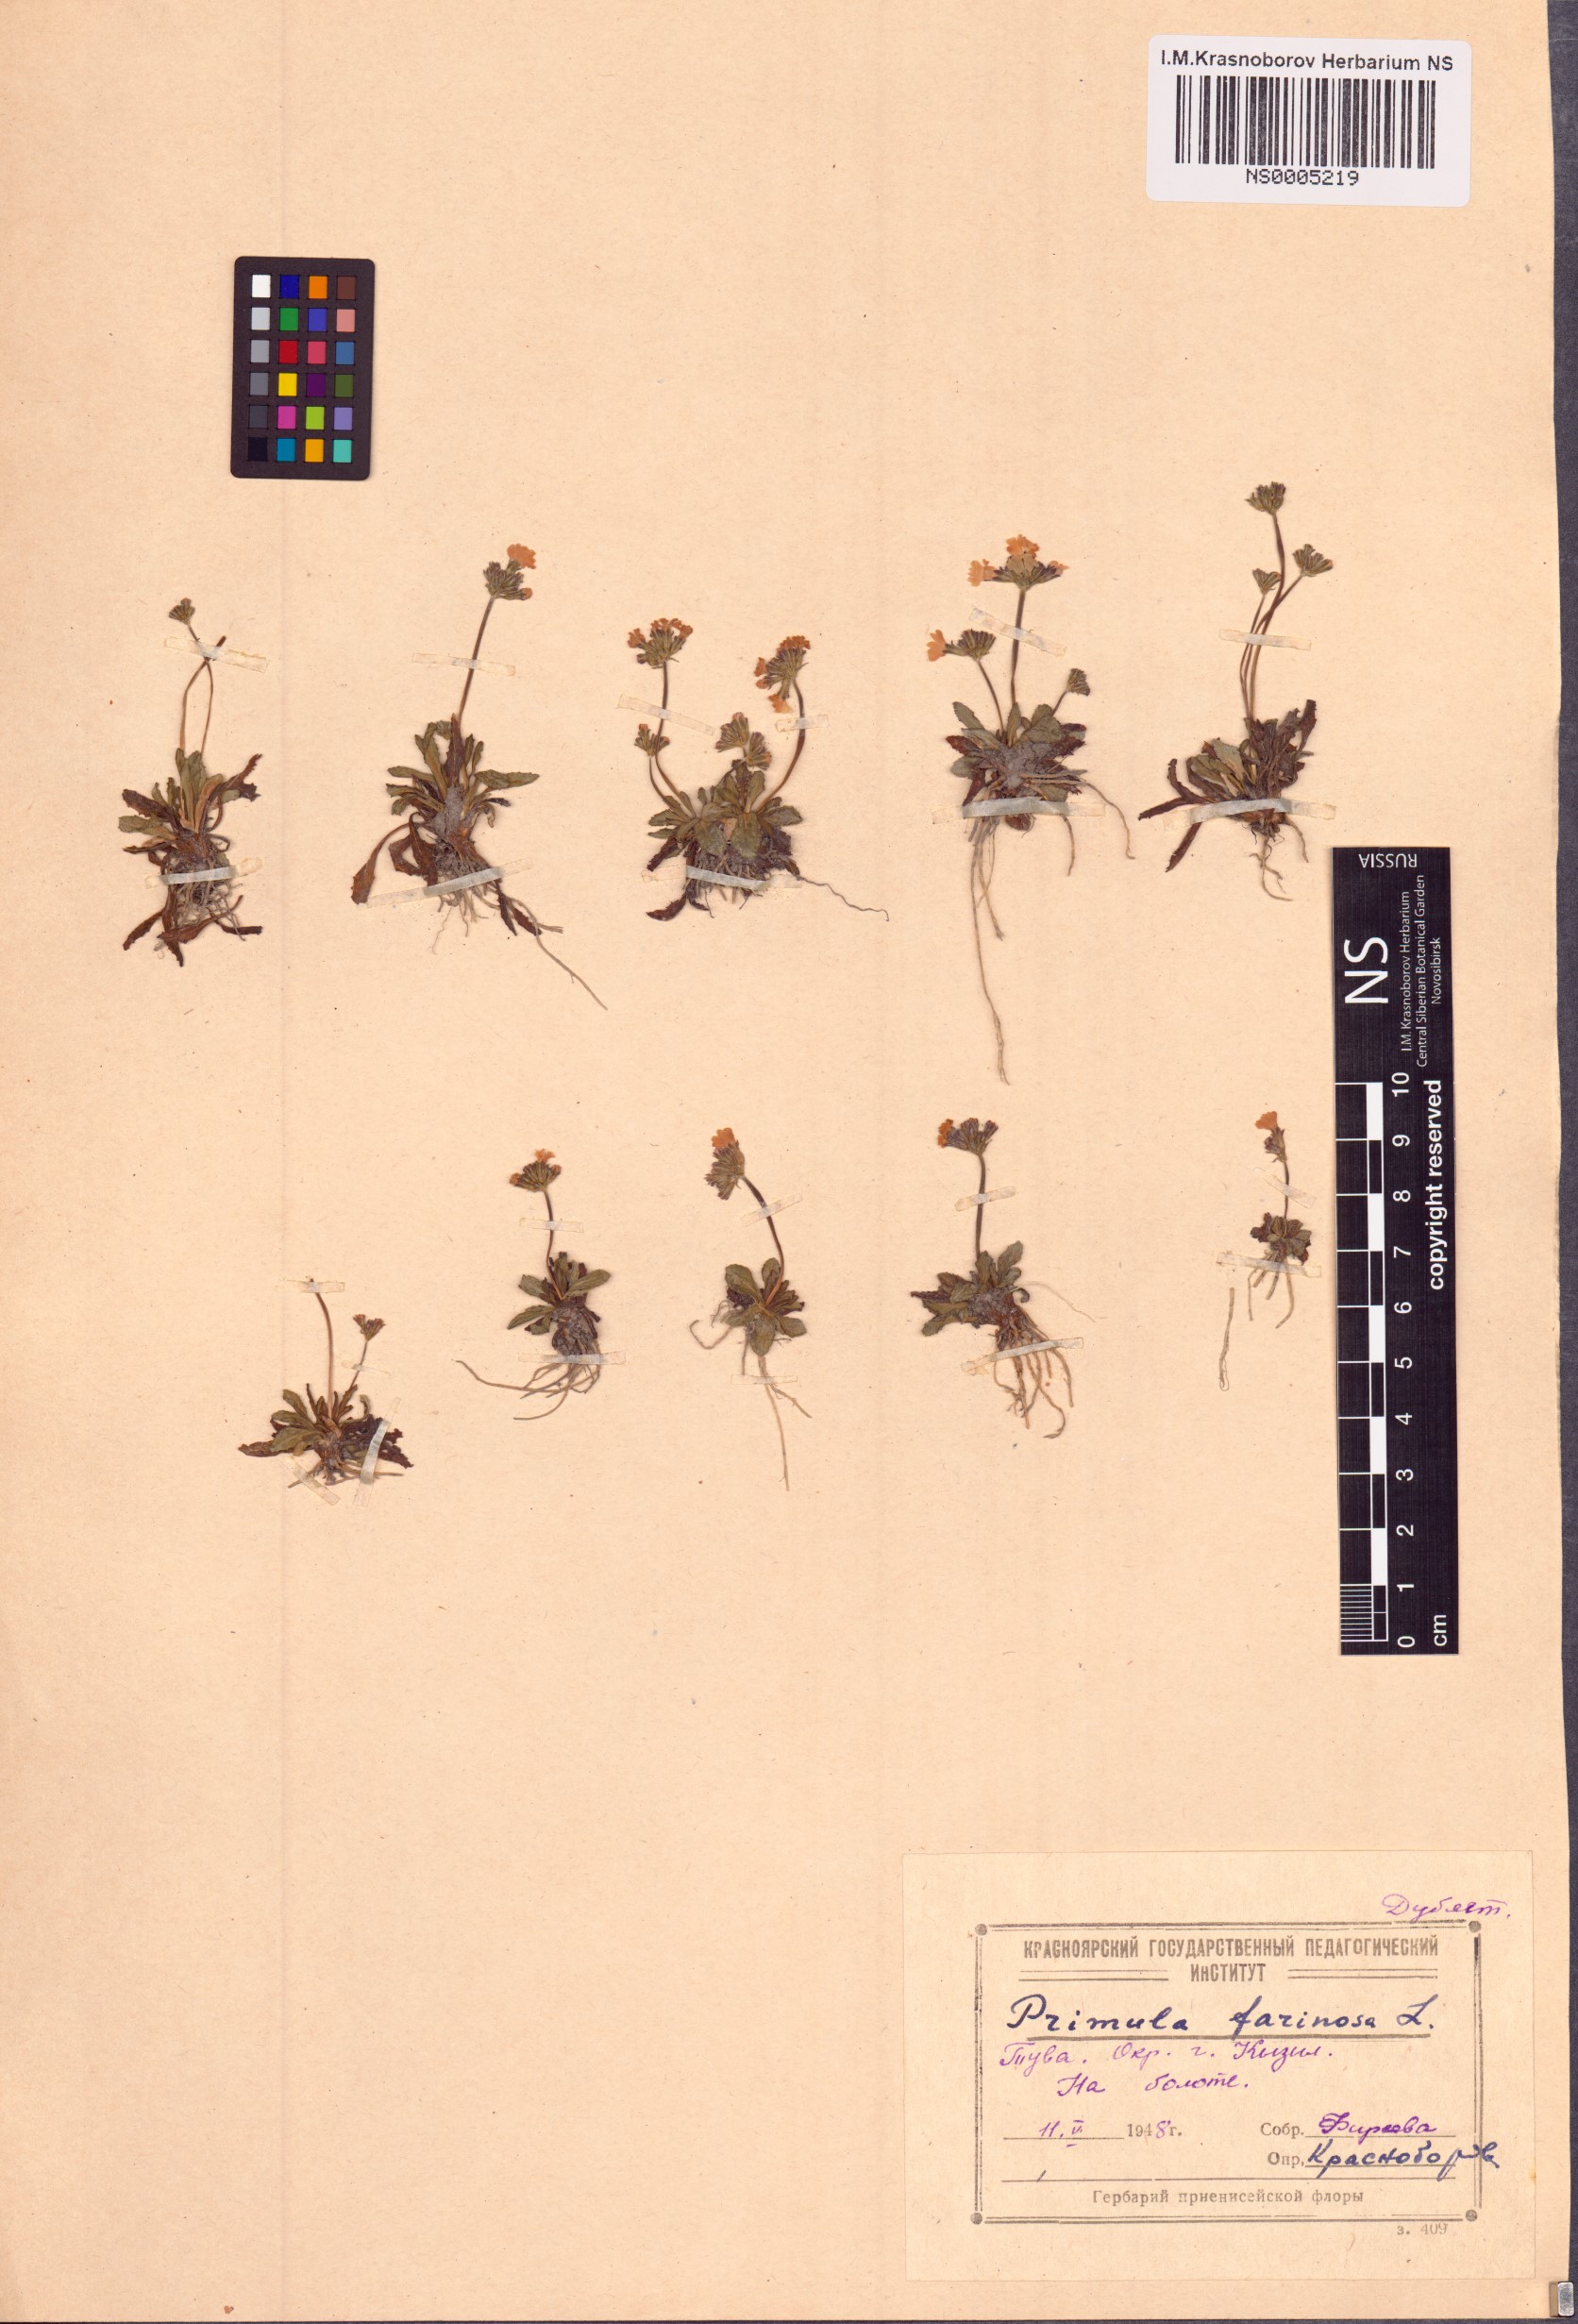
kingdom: Plantae
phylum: Tracheophyta
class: Magnoliopsida
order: Ericales
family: Primulaceae
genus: Primula
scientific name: Primula farinosa
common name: Bird's-eye primrose
